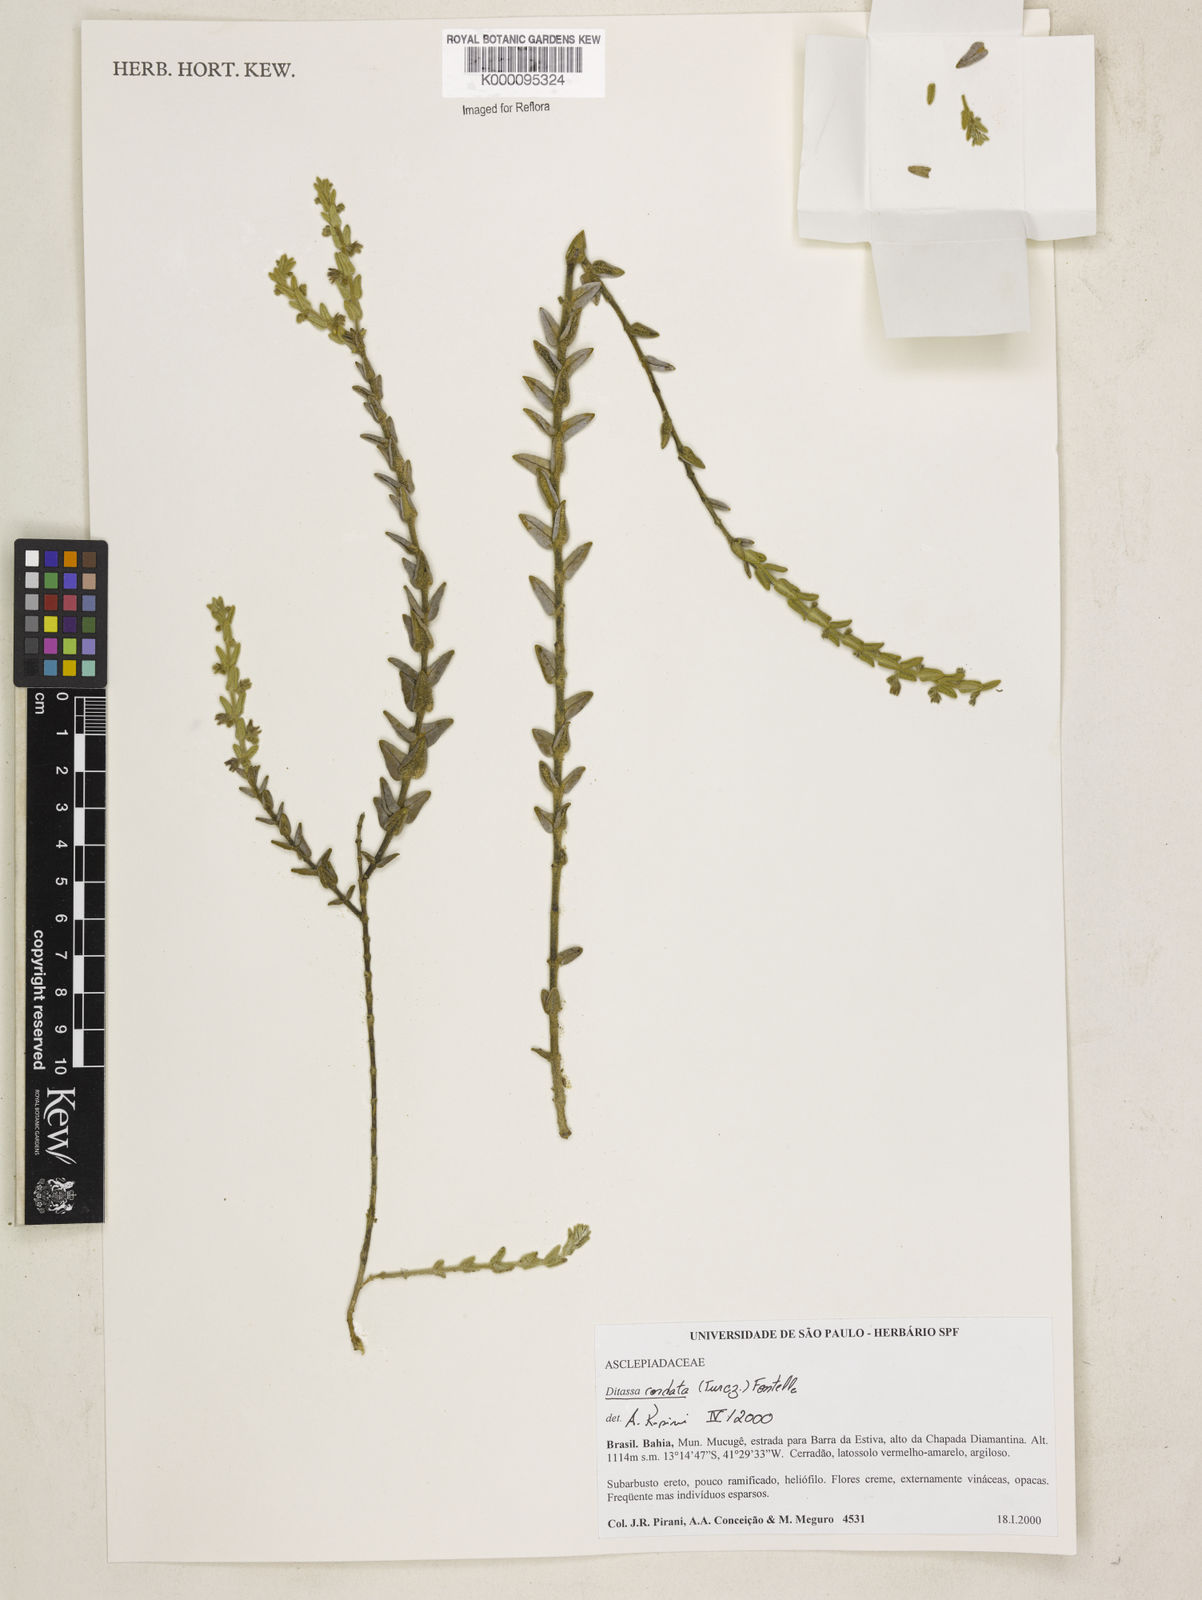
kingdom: Plantae
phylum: Tracheophyta
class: Magnoliopsida
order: Gentianales
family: Apocynaceae
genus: Minaria
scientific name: Minaria cordata
